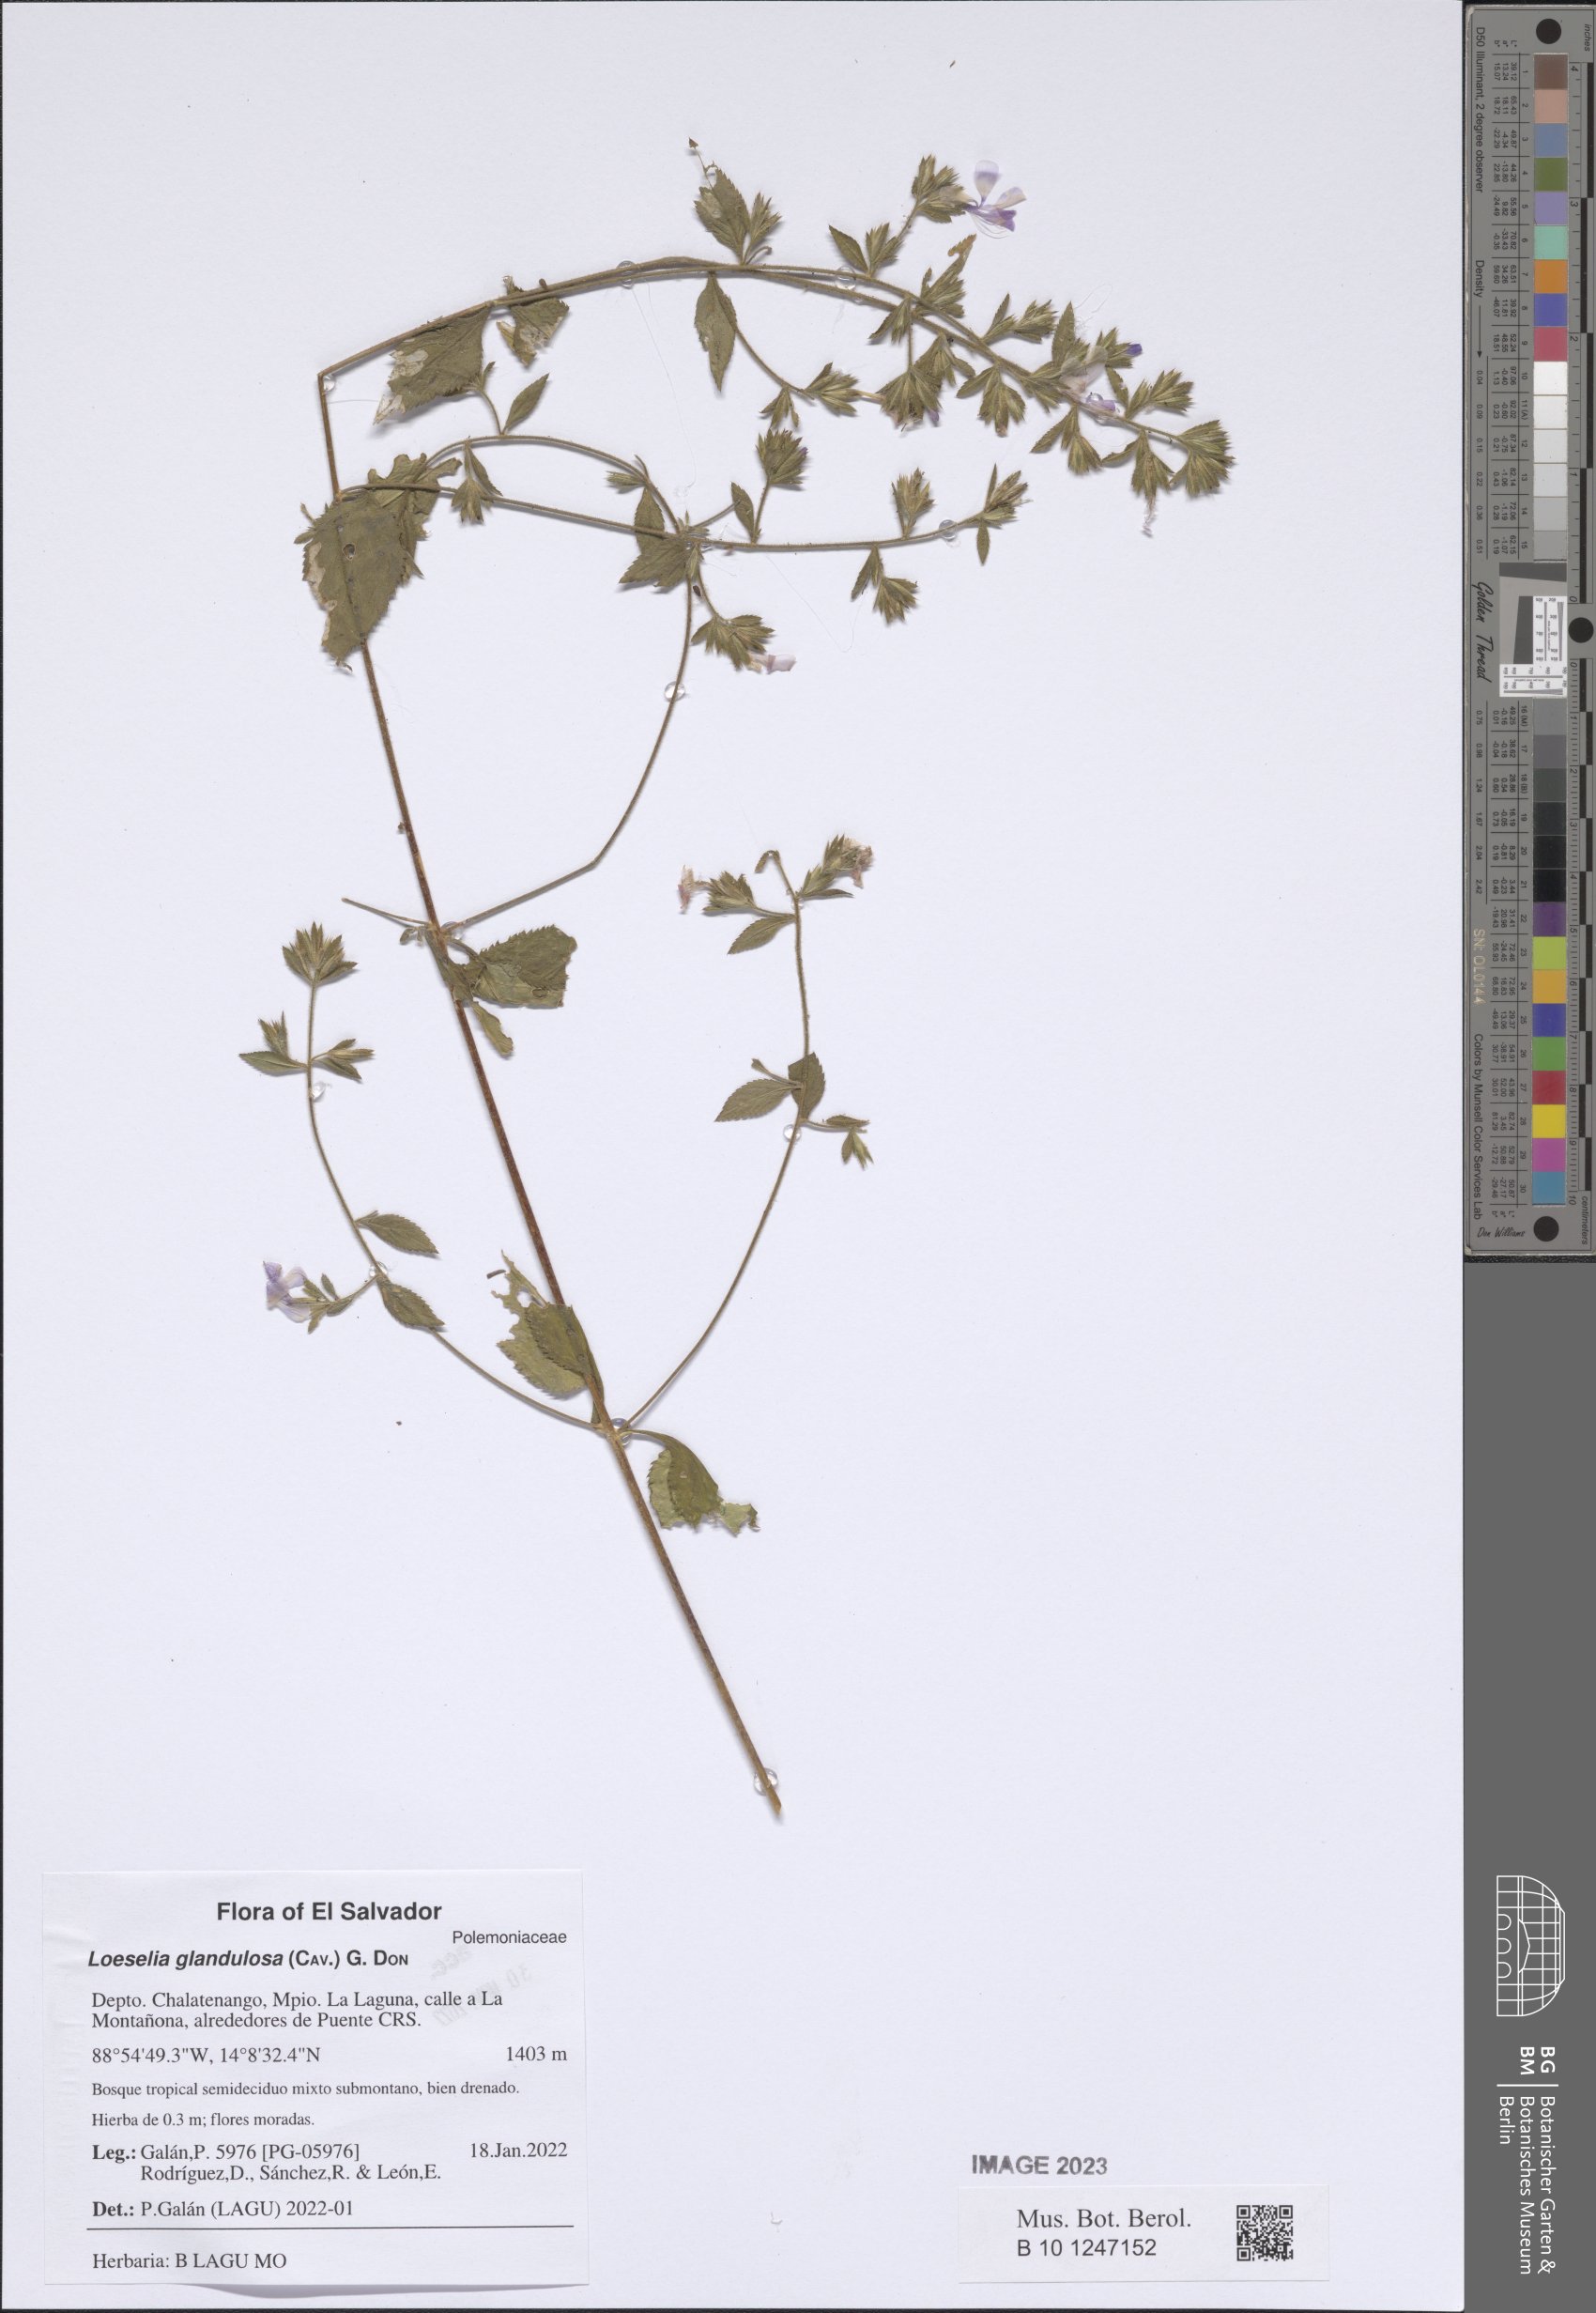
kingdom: Plantae
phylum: Tracheophyta
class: Magnoliopsida
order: Ericales
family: Polemoniaceae
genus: Loeselia
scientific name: Loeselia glandulosa
